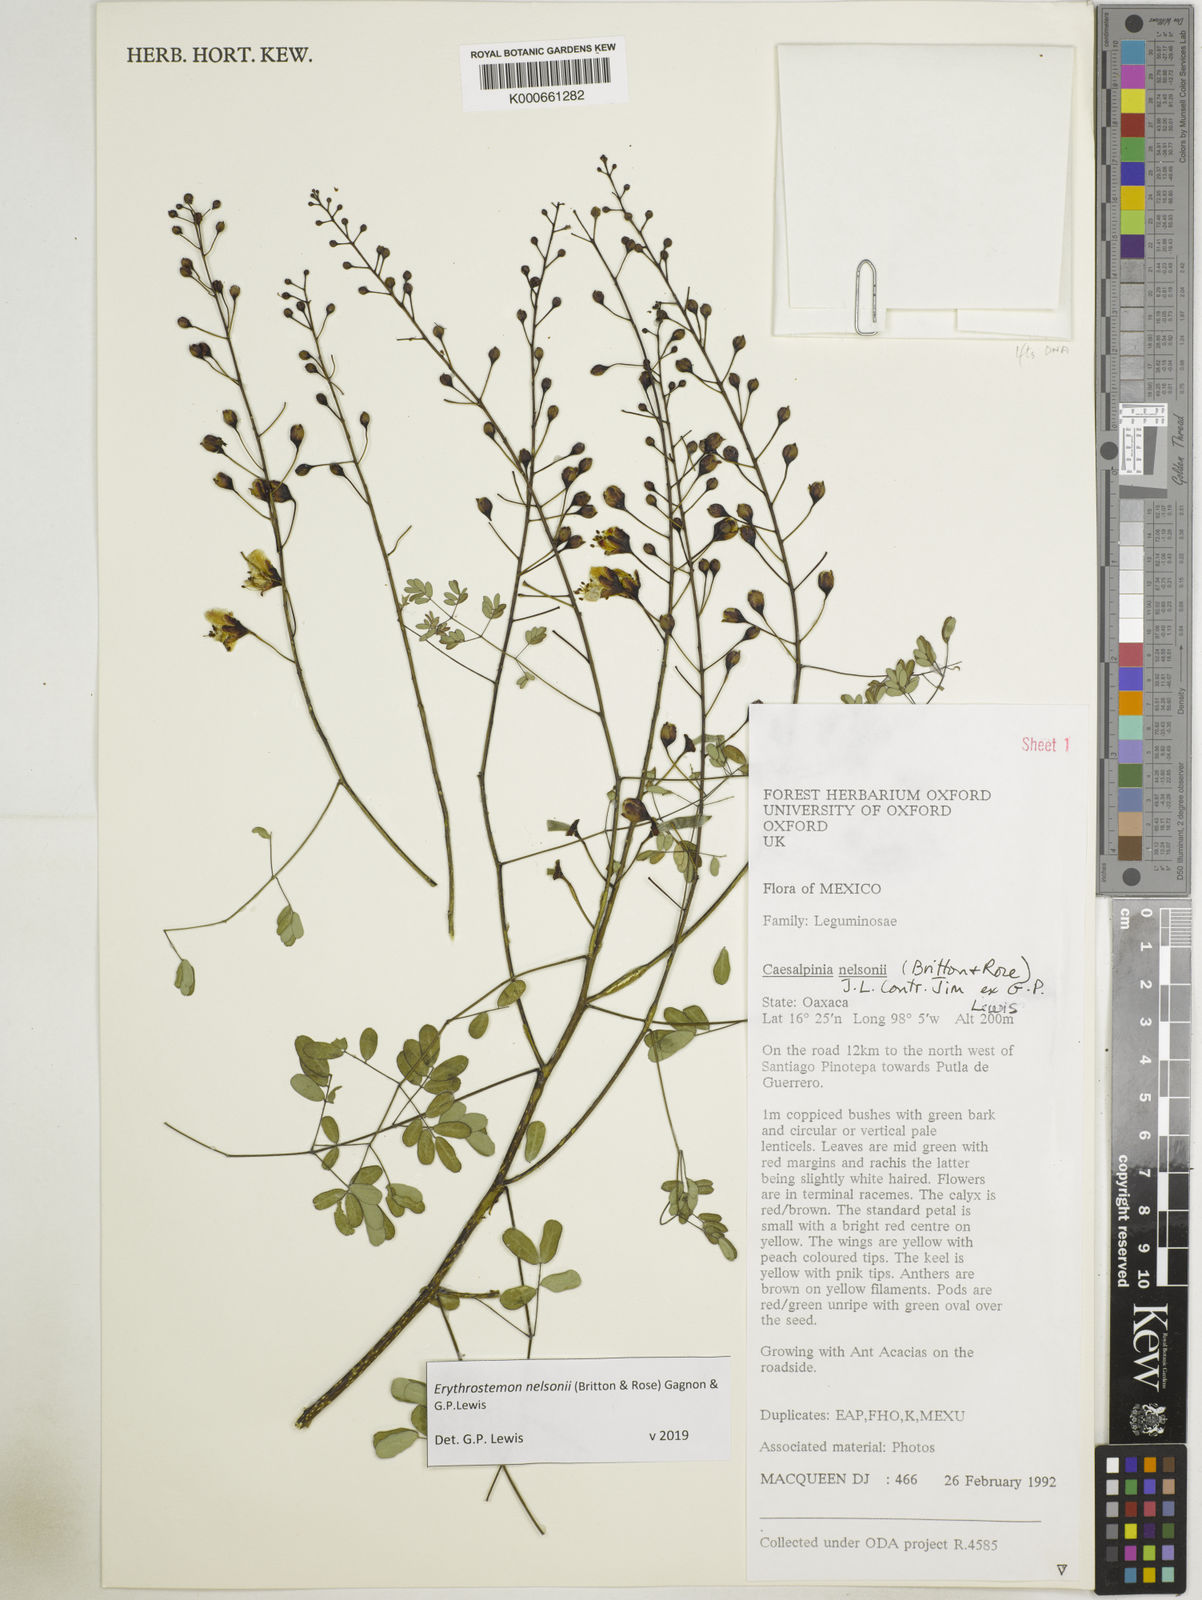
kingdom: Plantae
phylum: Tracheophyta
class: Magnoliopsida
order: Fabales
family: Fabaceae
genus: Erythrostemon
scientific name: Erythrostemon nelsonii
